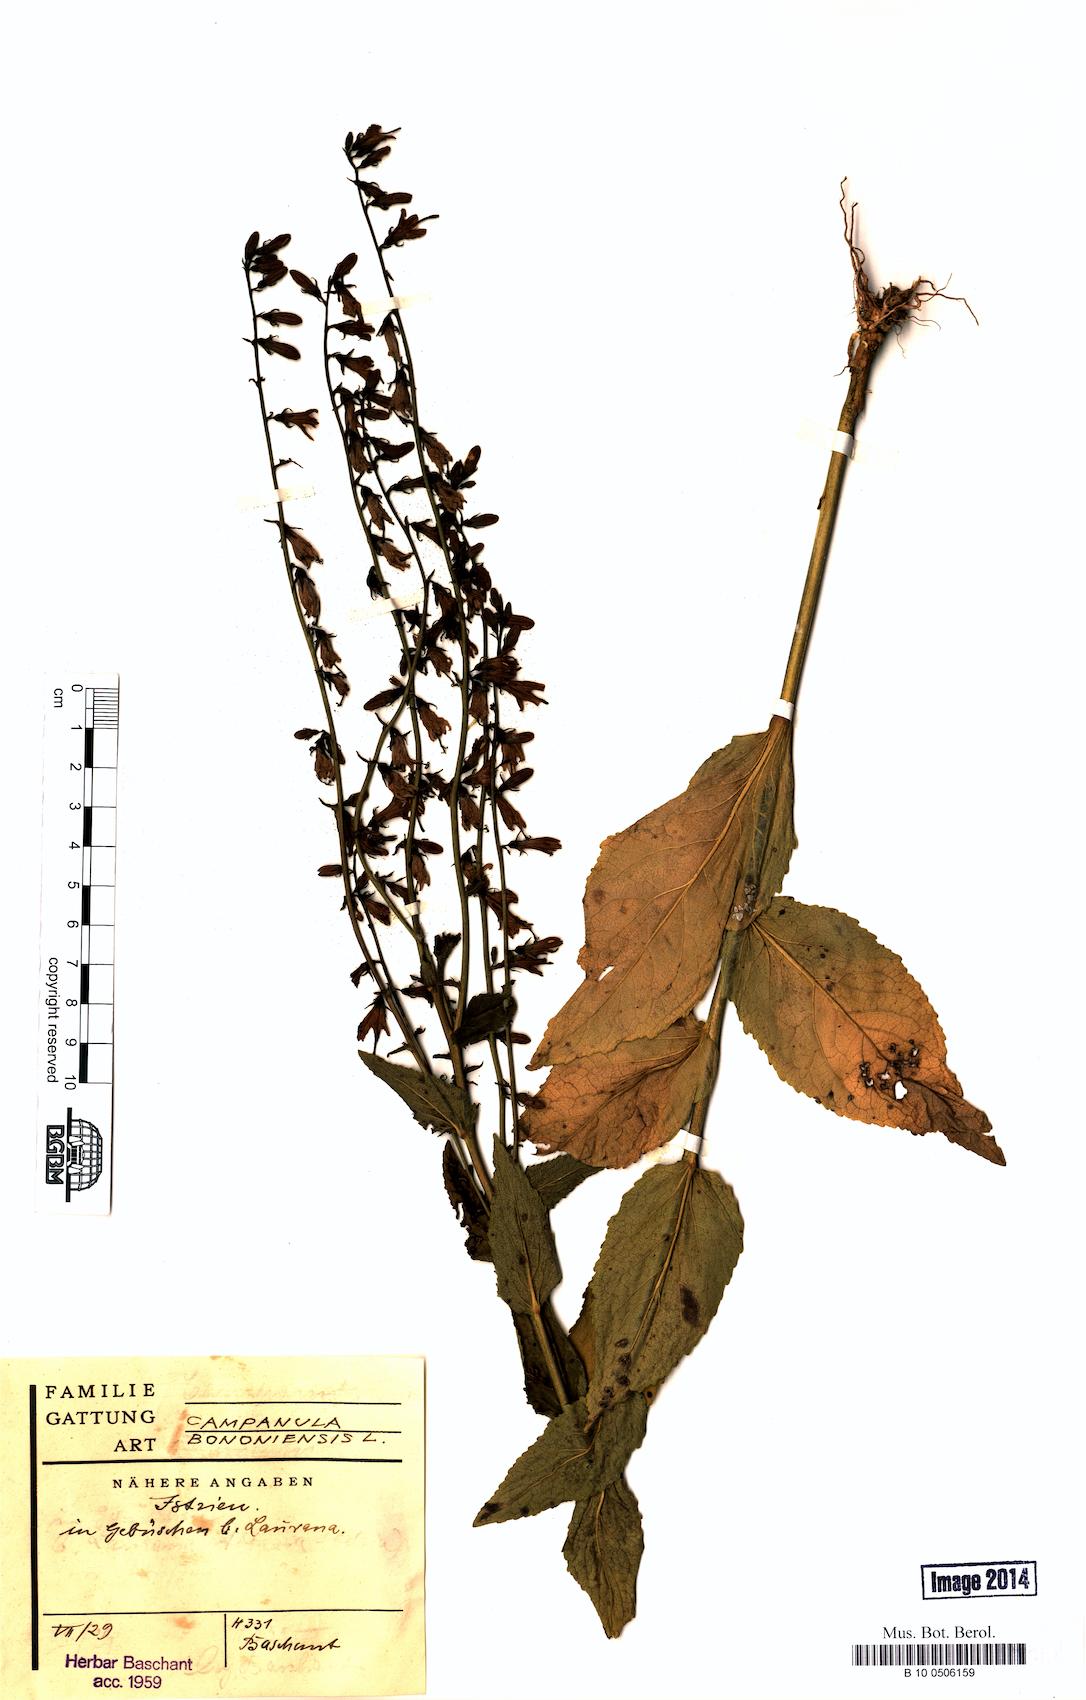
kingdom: Plantae
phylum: Tracheophyta
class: Magnoliopsida
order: Asterales
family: Campanulaceae
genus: Campanula
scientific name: Campanula bononiensis
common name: Pale bellflower
